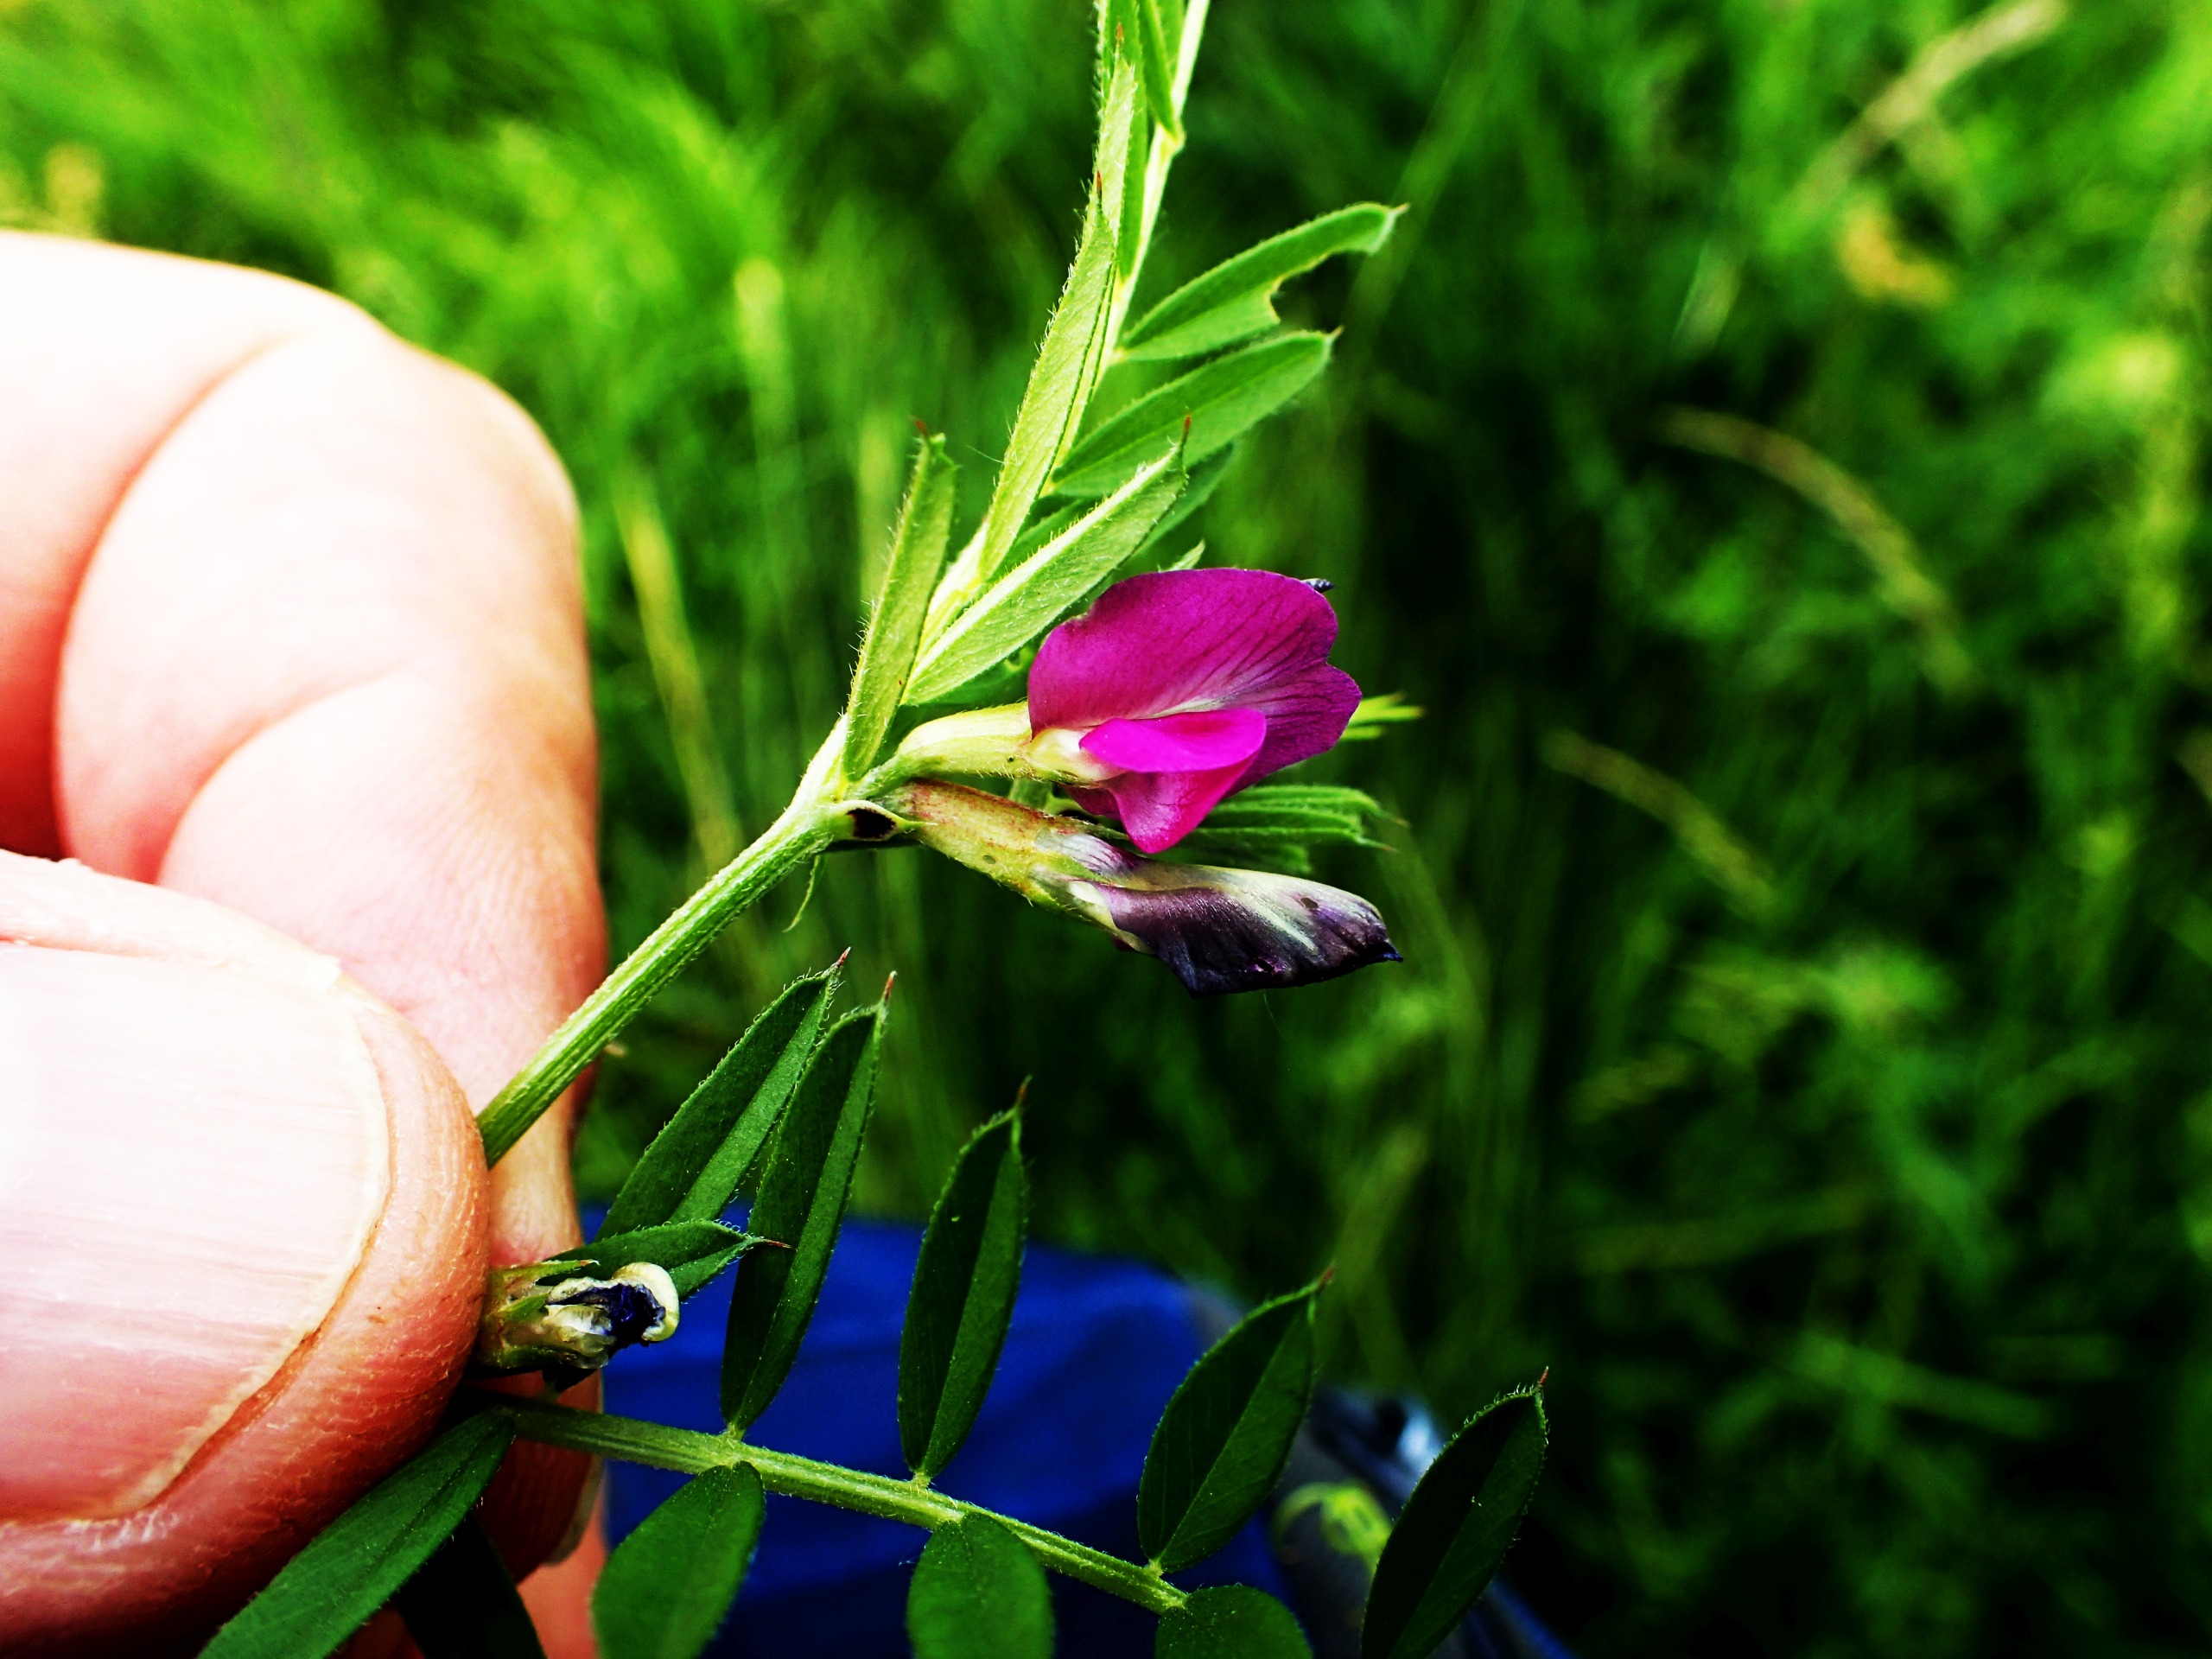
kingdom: Plantae
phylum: Tracheophyta
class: Magnoliopsida
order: Fabales
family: Fabaceae
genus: Vicia
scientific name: Vicia sativa
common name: Smalbladet vikke
